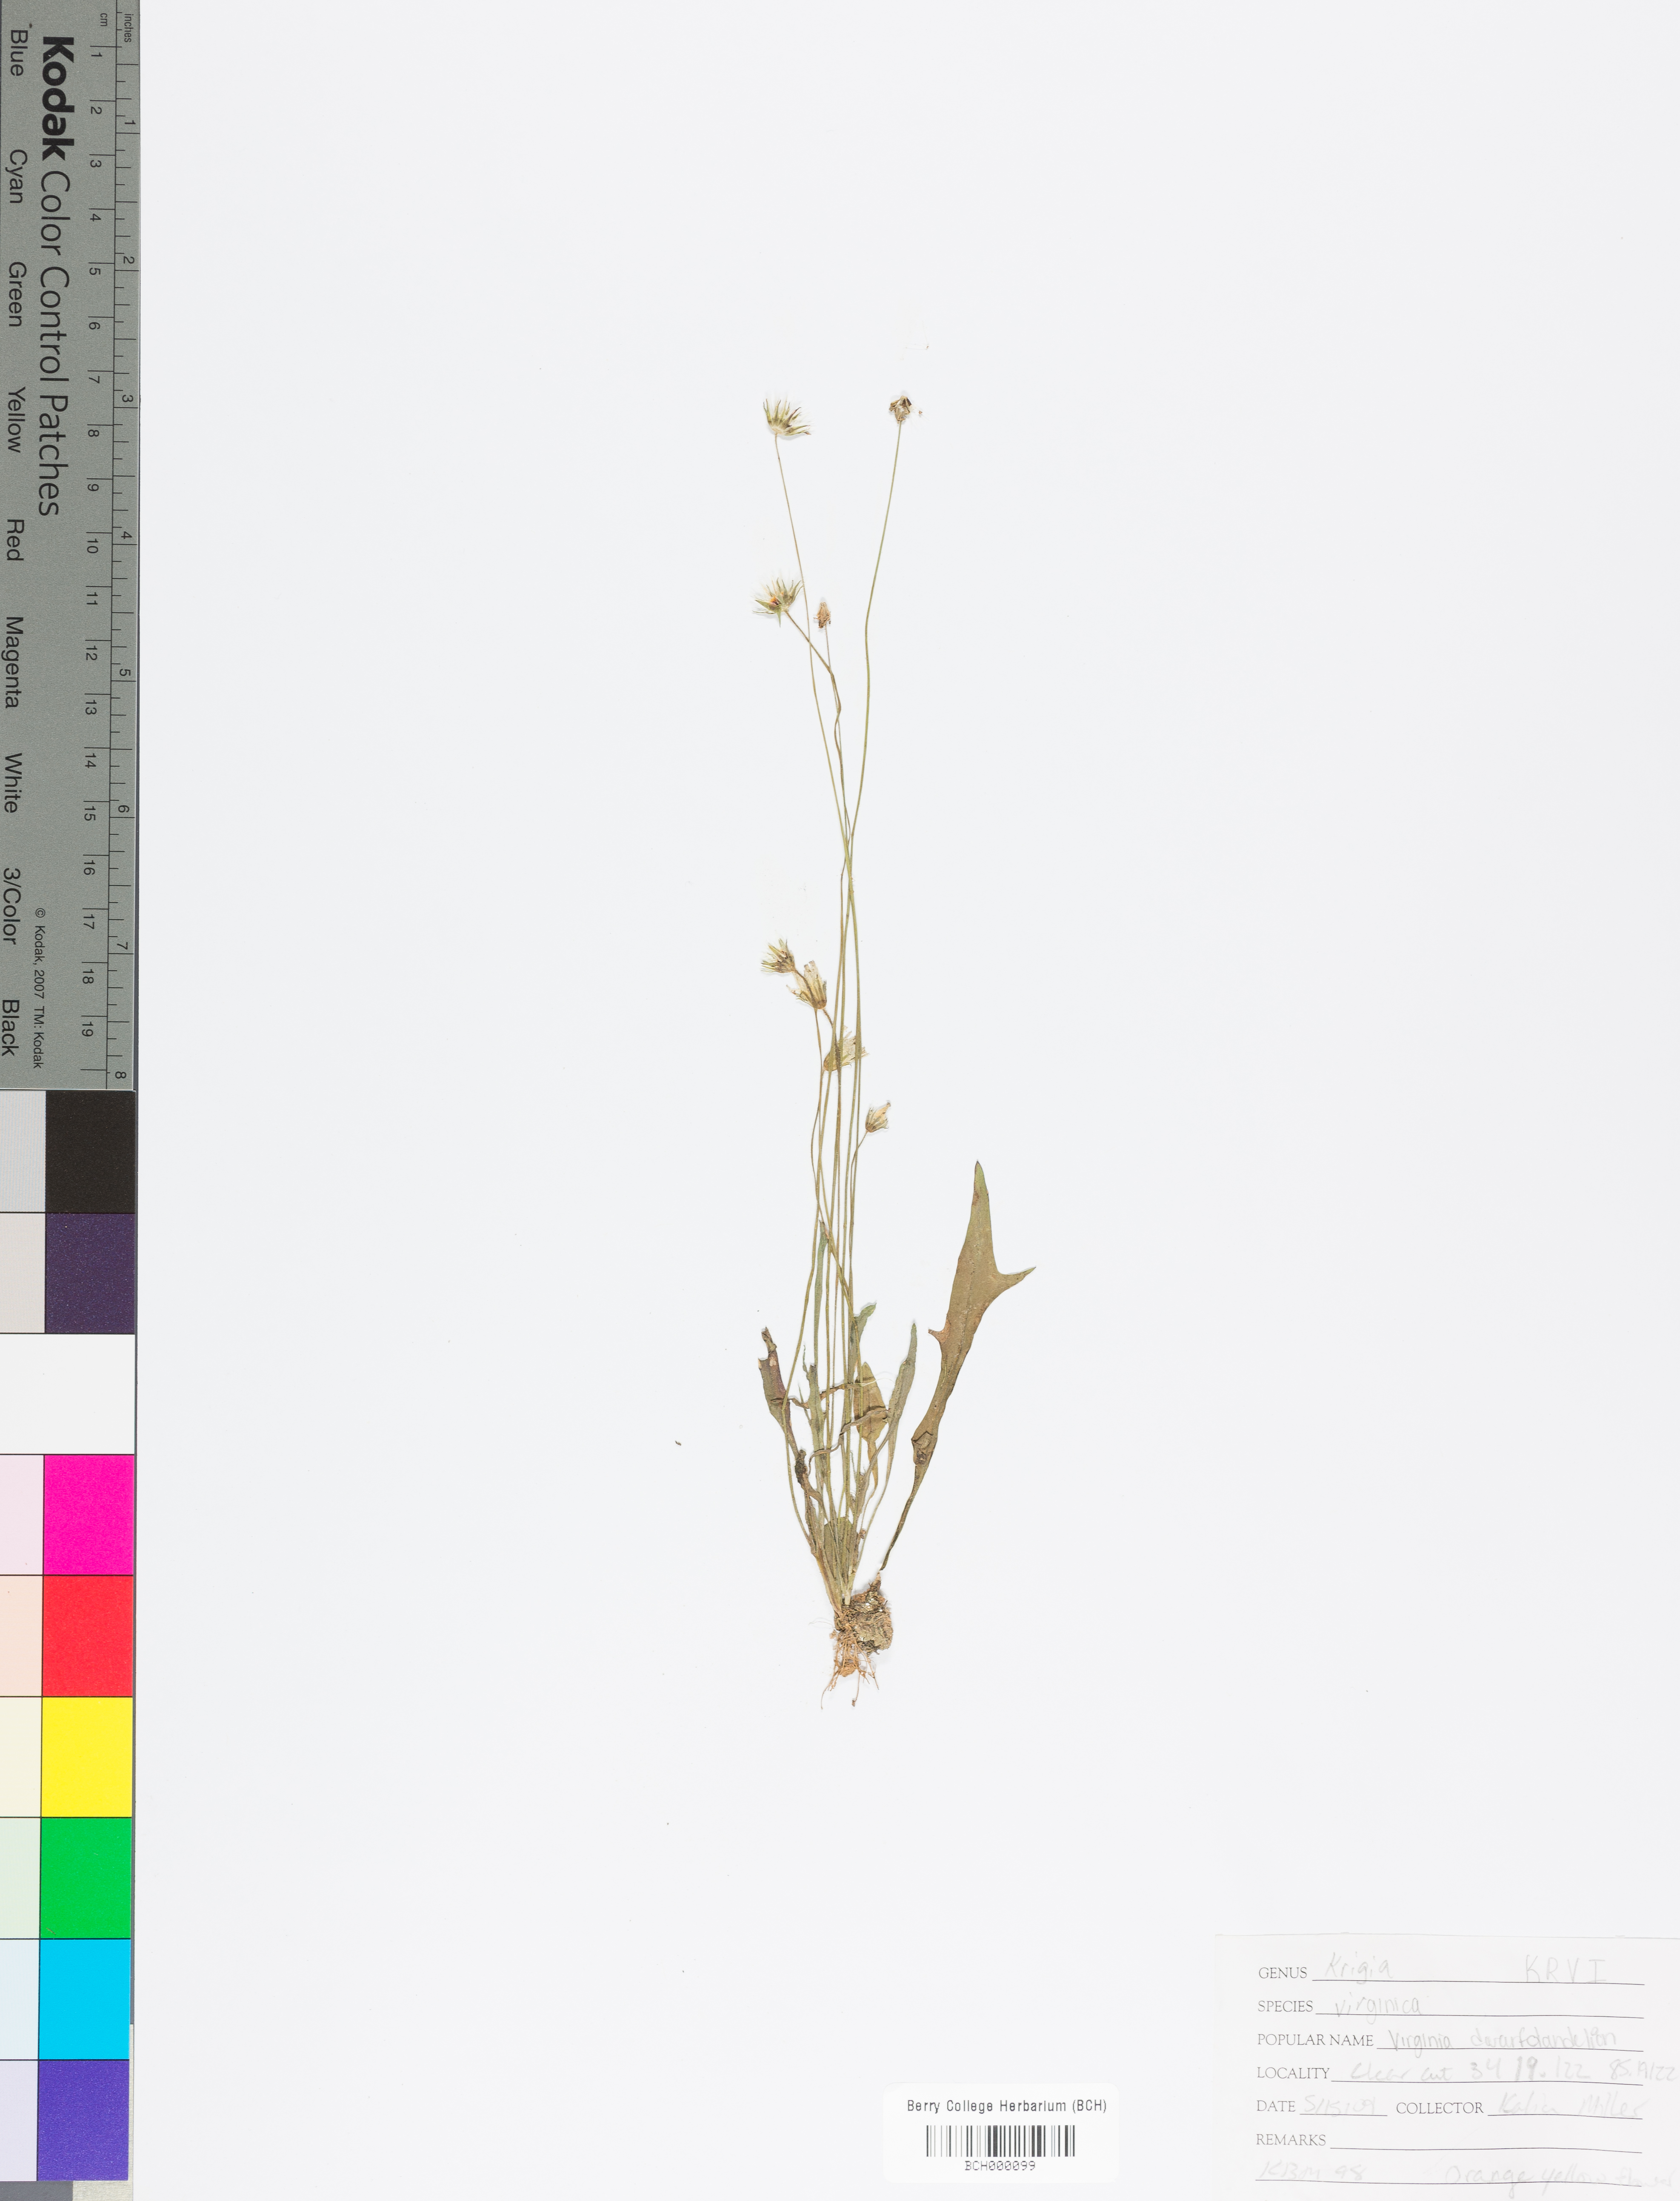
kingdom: Plantae
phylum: Tracheophyta
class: Magnoliopsida
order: Asterales
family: Asteraceae
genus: Krigia
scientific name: Krigia virginica
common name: Virginia dwarf-dandelion
